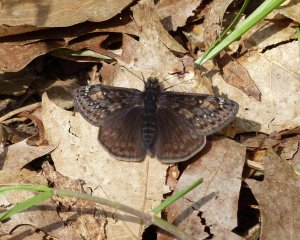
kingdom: Animalia
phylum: Arthropoda
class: Insecta
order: Lepidoptera
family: Hesperiidae
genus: Gesta
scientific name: Gesta
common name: Juvenal's Duskywing
